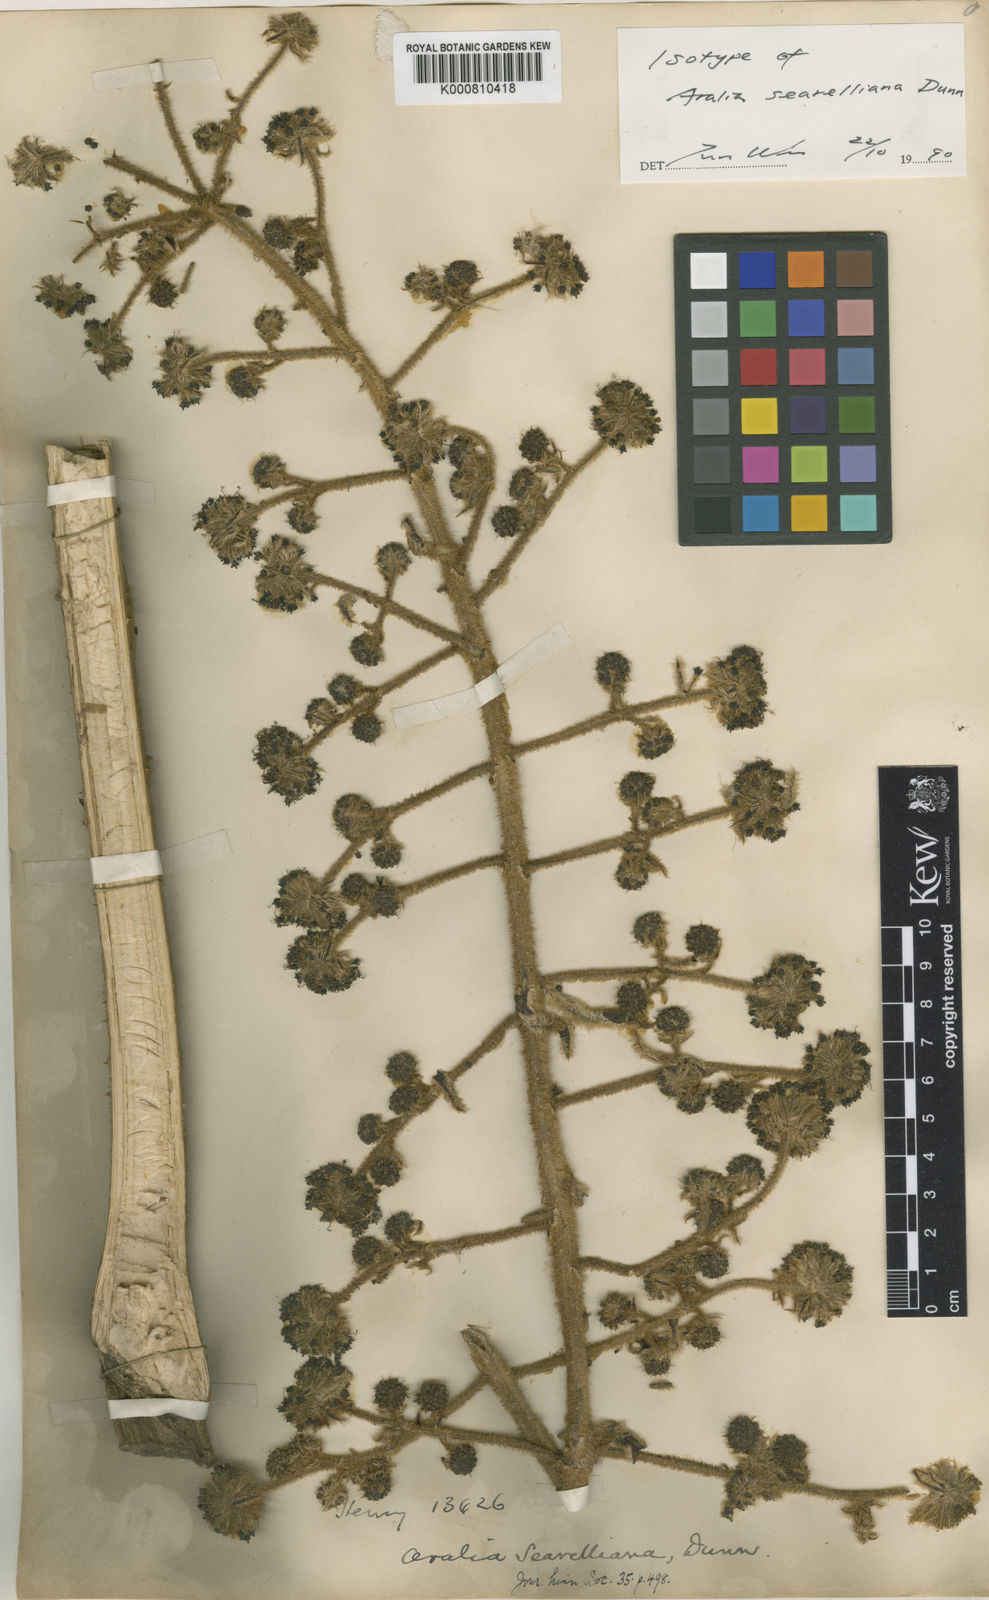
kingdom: Plantae
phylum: Tracheophyta
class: Magnoliopsida
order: Apiales
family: Araliaceae
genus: Aralia
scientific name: Aralia searelliana
